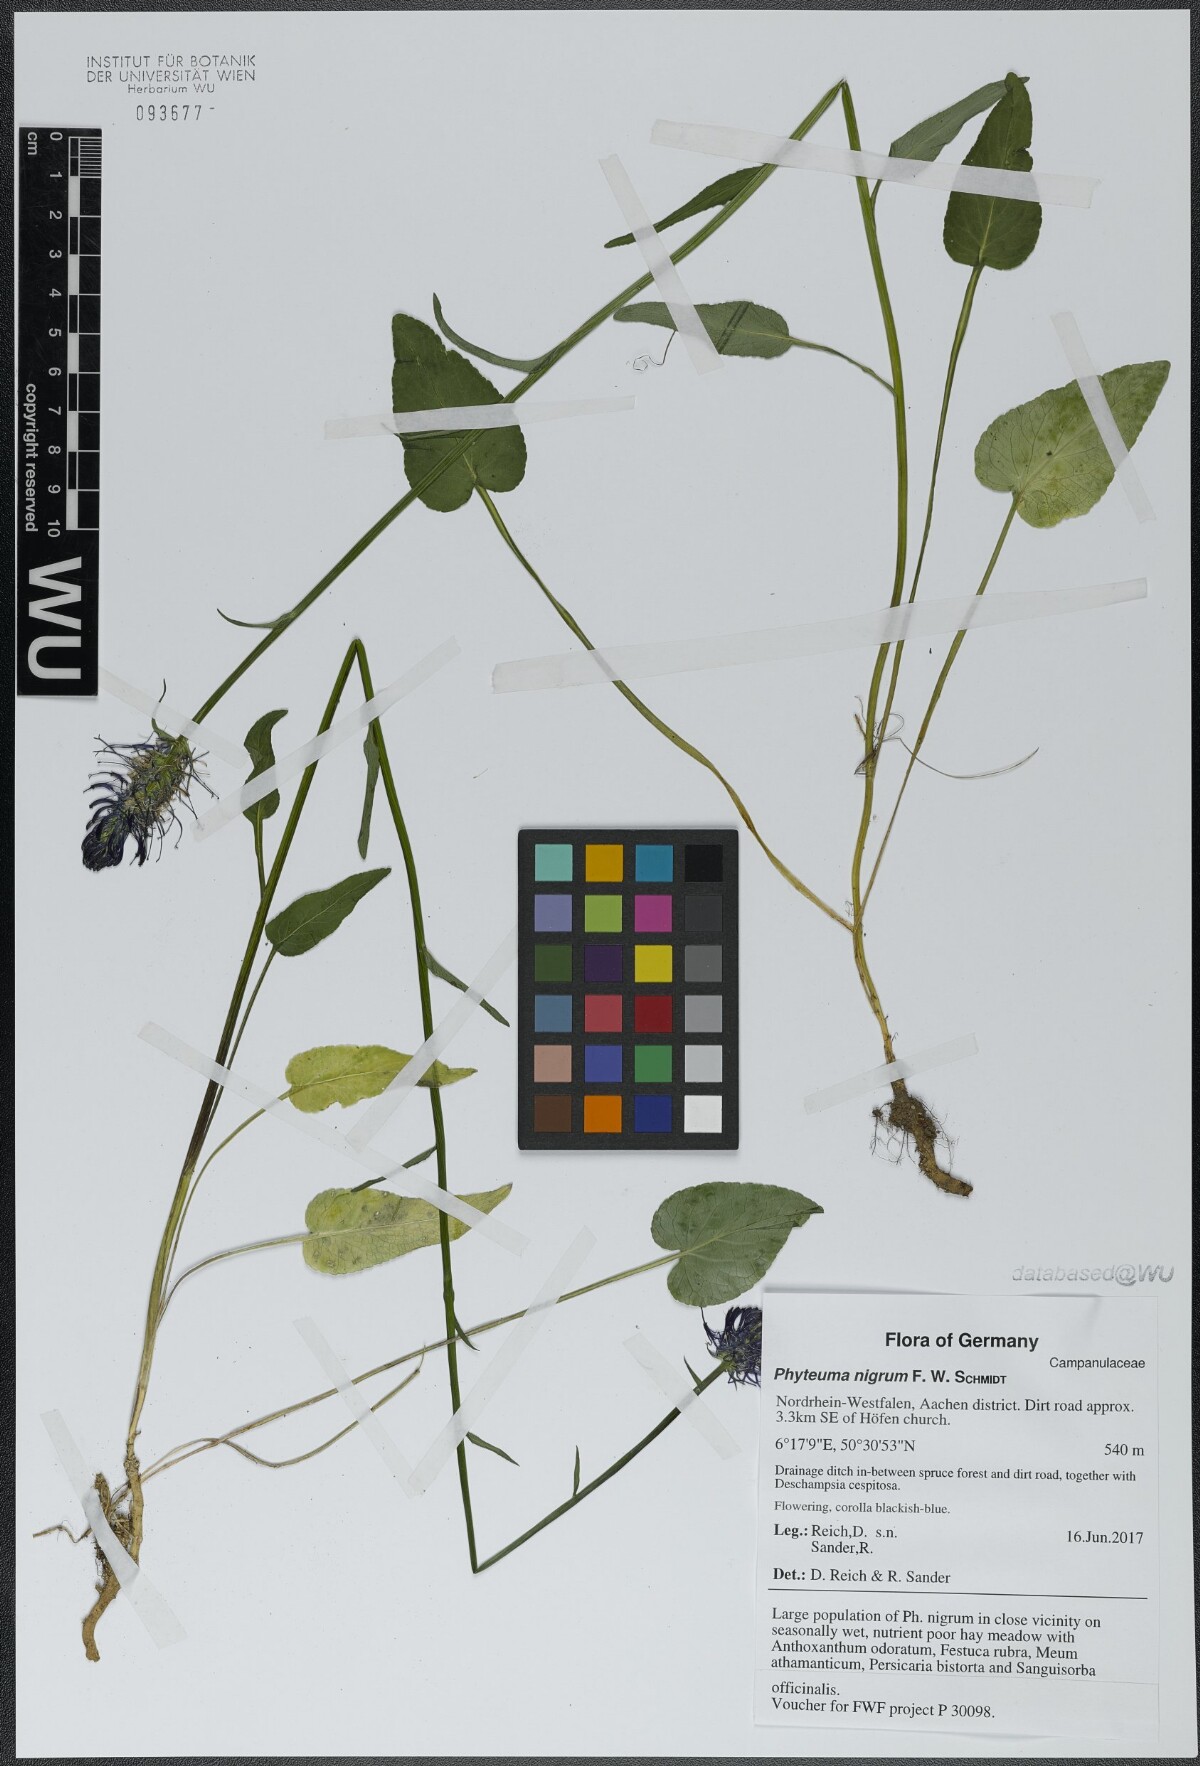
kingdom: Plantae
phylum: Tracheophyta
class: Magnoliopsida
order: Asterales
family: Campanulaceae
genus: Phyteuma
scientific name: Phyteuma nigrum
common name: Black rampion
